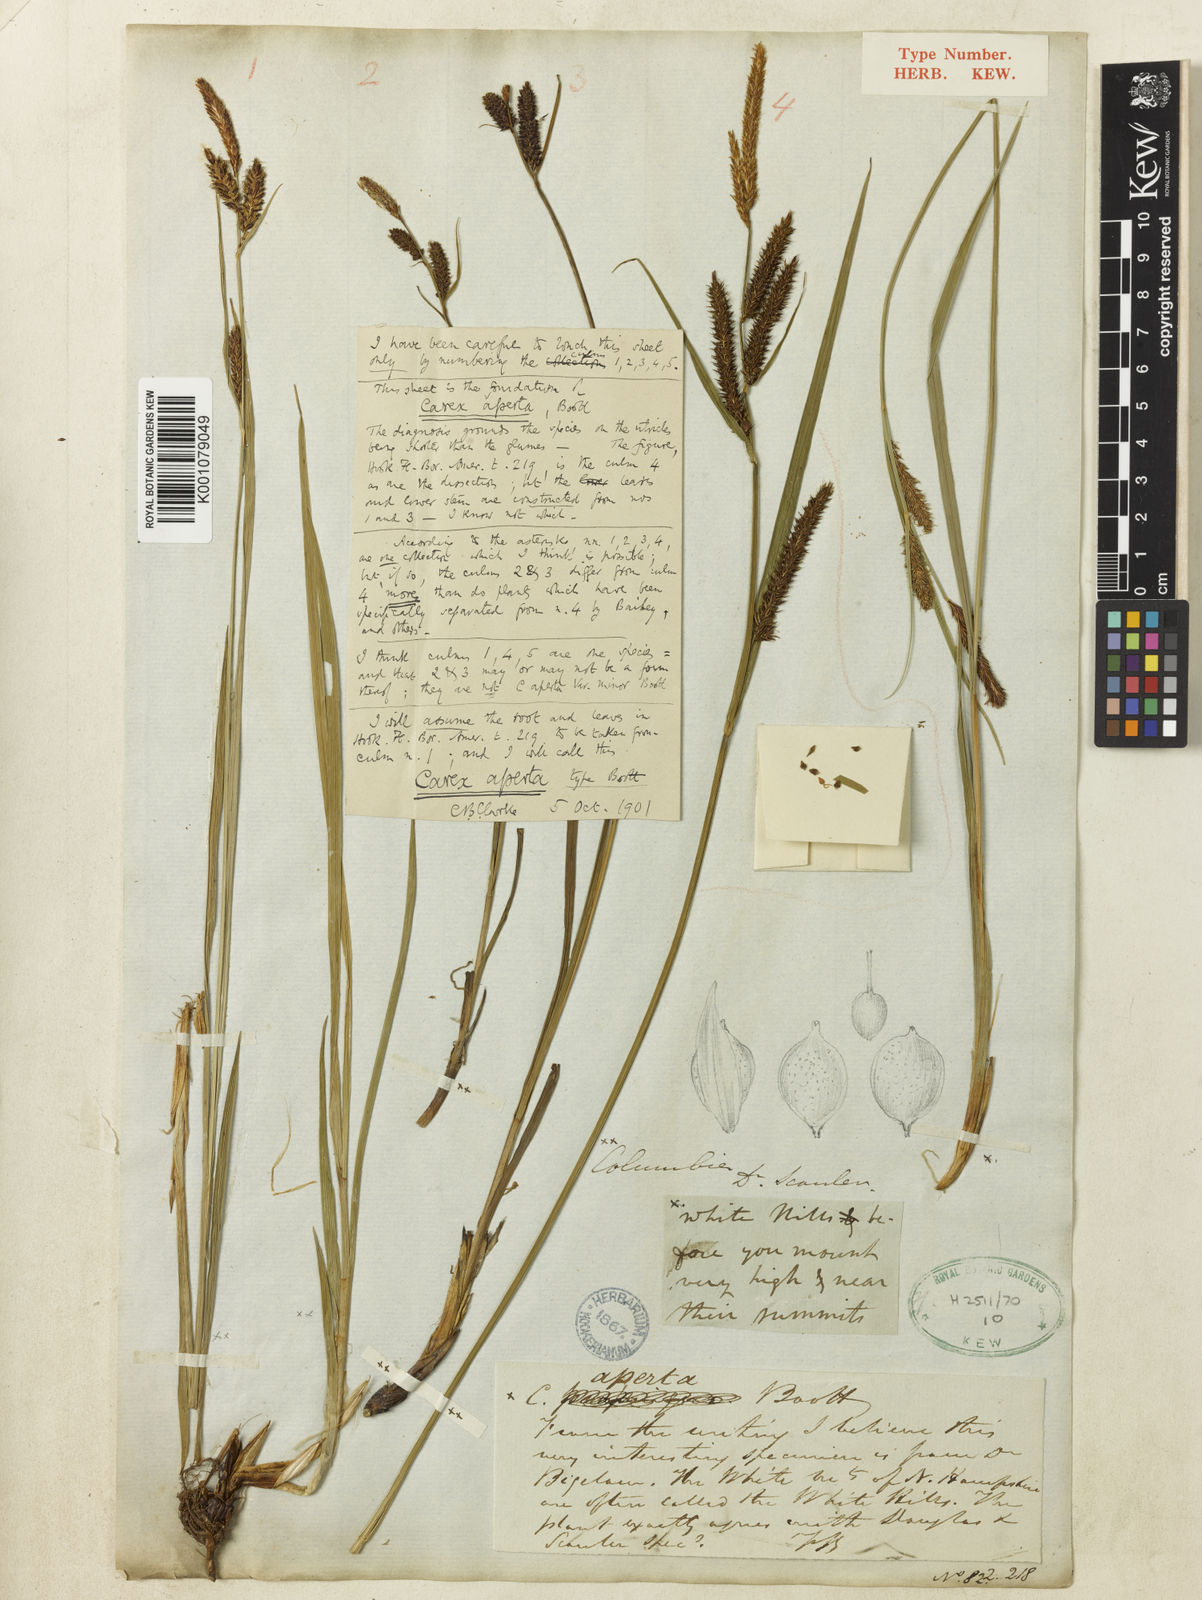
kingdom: Plantae
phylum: Tracheophyta
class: Liliopsida
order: Poales
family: Cyperaceae
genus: Carex
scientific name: Carex aperta
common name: Columbia sedge
